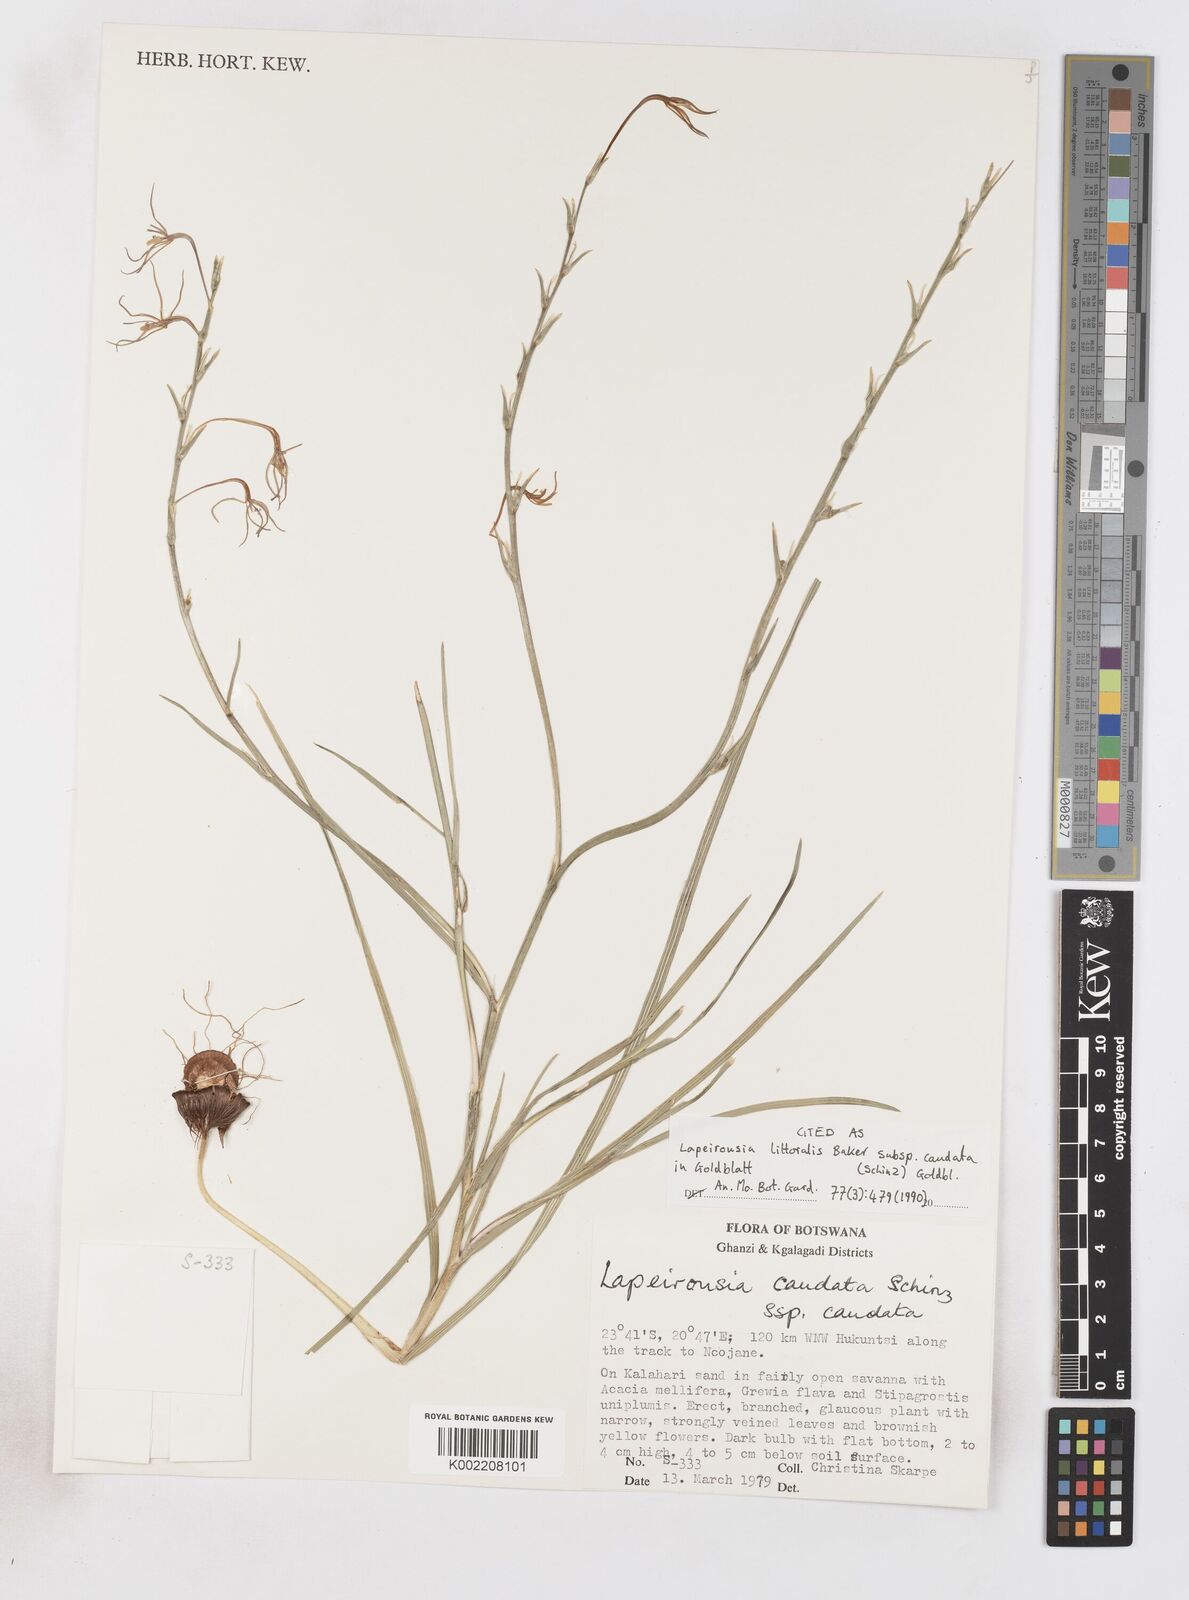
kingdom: Plantae
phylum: Tracheophyta
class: Liliopsida
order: Asparagales
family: Iridaceae
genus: Lapeirousia
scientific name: Lapeirousia caudata
